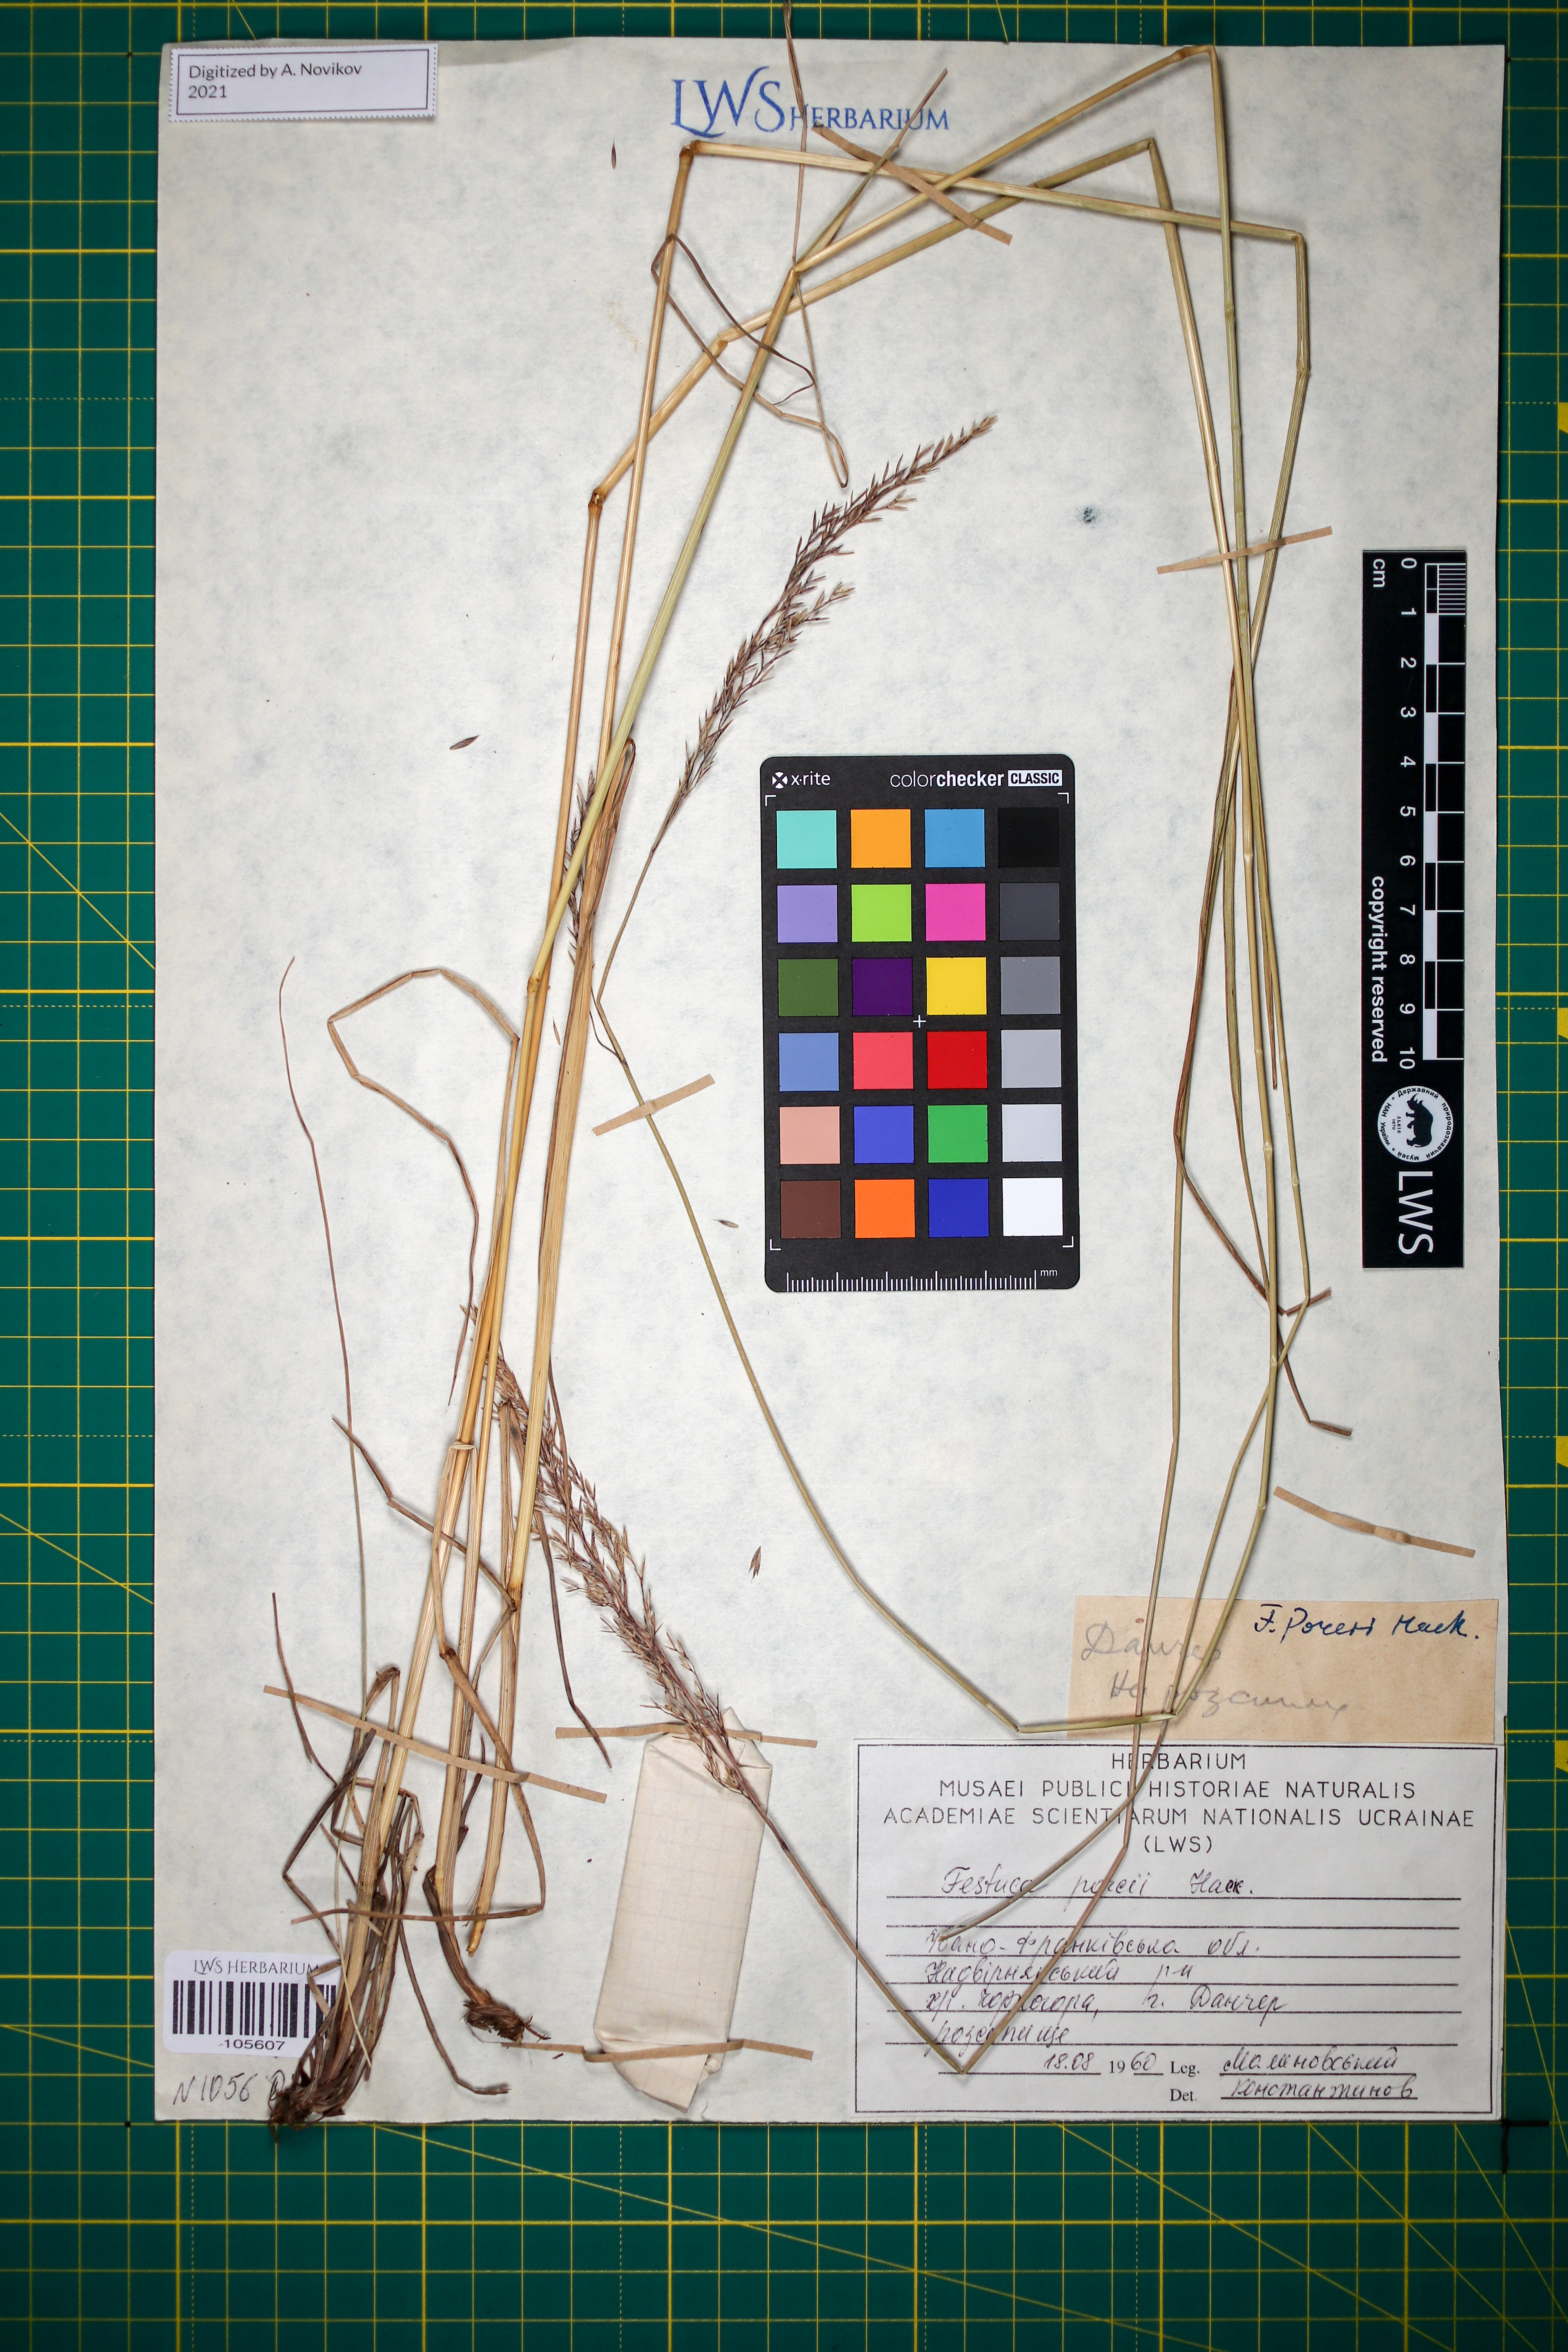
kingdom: Plantae
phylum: Tracheophyta
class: Liliopsida
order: Poales
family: Poaceae
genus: Festuca
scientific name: Festuca porcii
